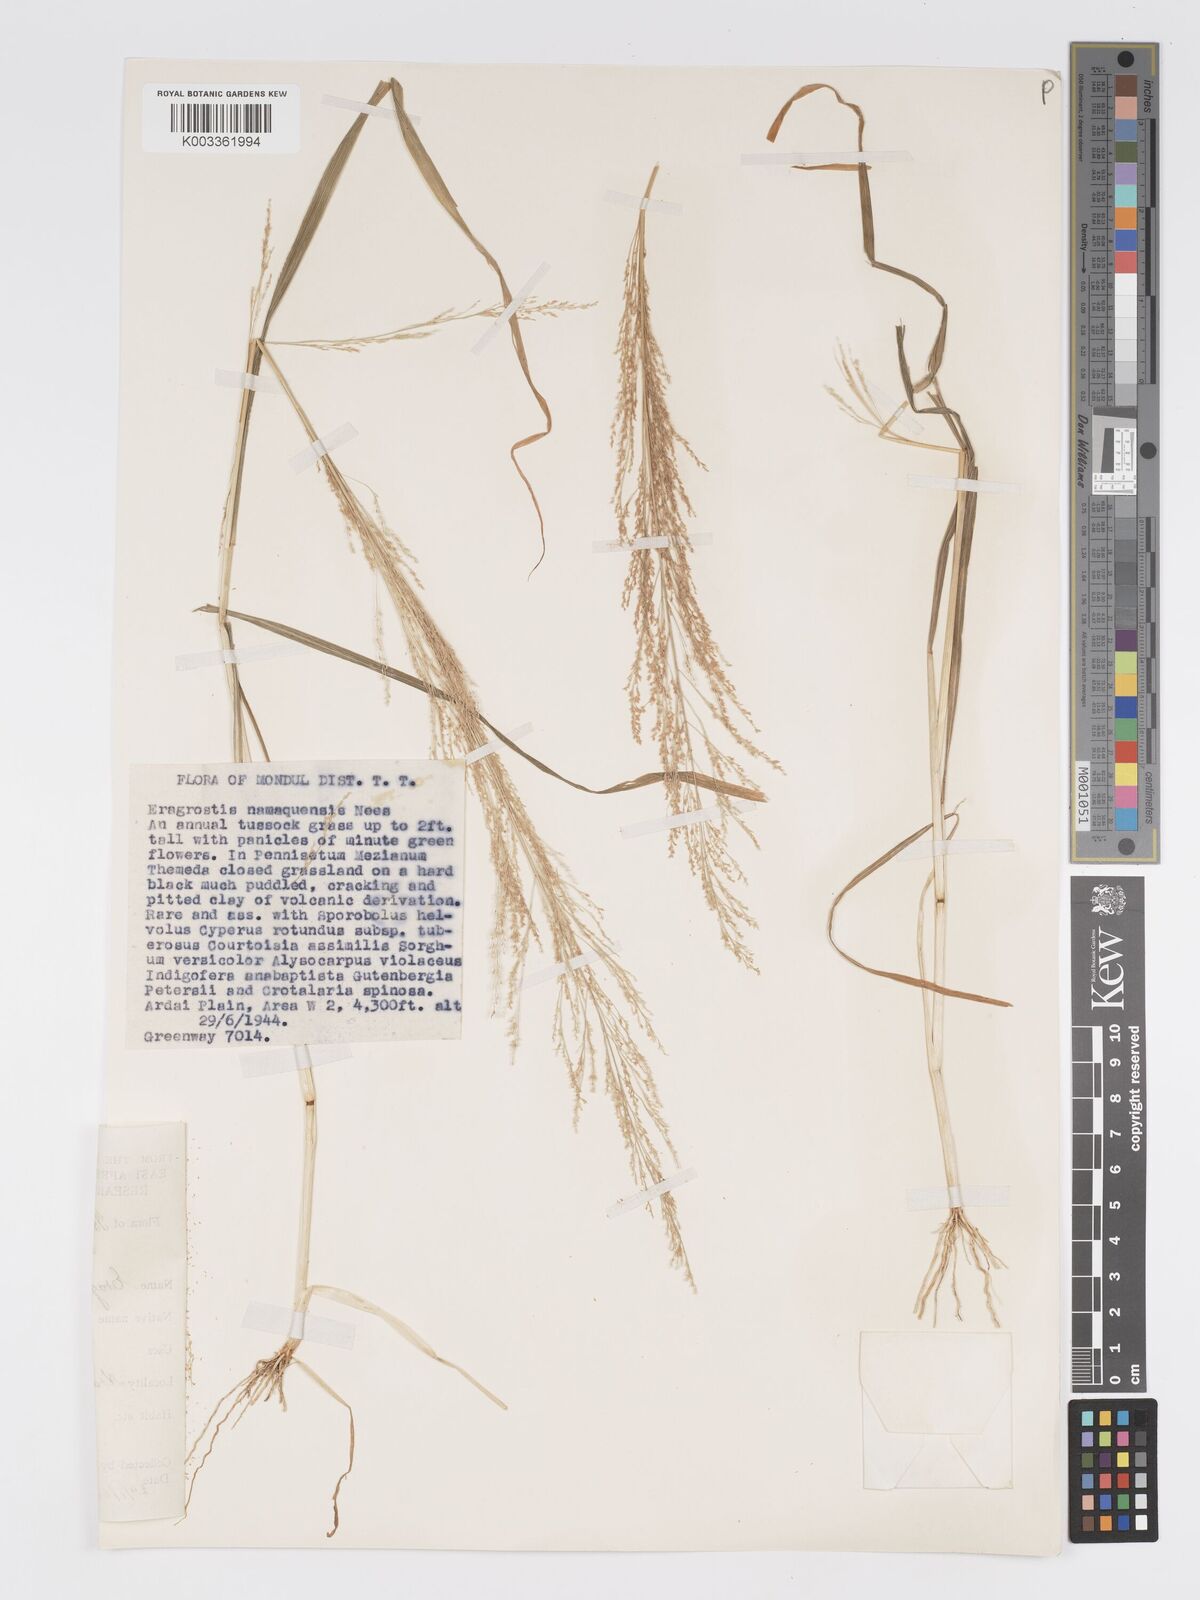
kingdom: Plantae
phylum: Tracheophyta
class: Liliopsida
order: Poales
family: Poaceae
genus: Eragrostis
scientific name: Eragrostis japonica
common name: Pond lovegrass
